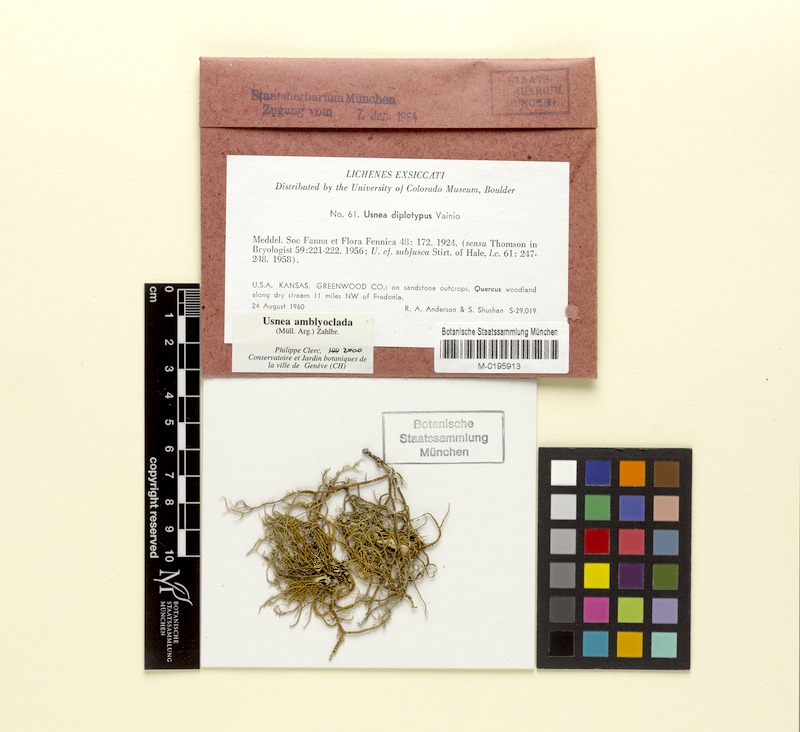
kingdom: Fungi
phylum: Ascomycota
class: Lecanoromycetes
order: Lecanorales
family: Parmeliaceae
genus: Usnea
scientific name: Usnea amblyoclada
